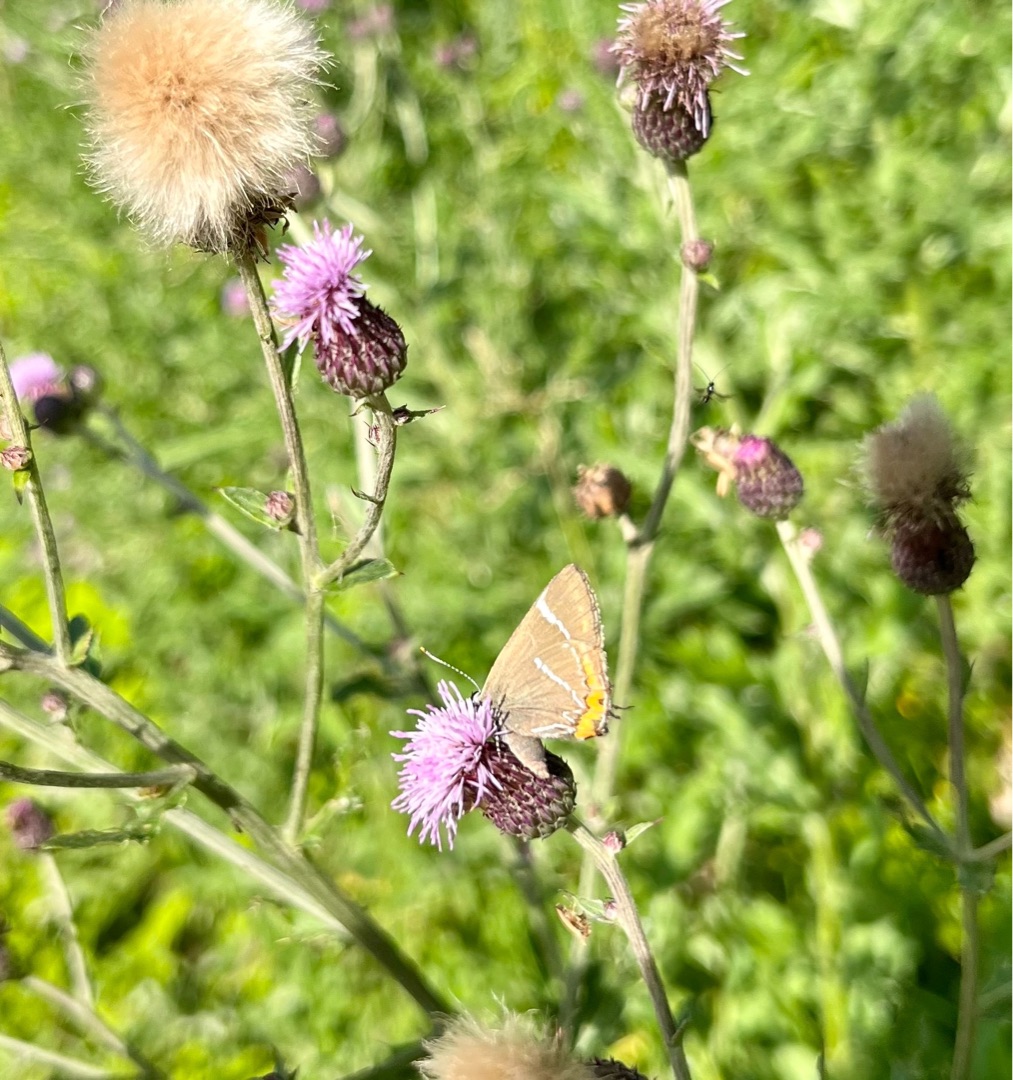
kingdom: Animalia
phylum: Arthropoda
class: Insecta
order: Lepidoptera
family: Lycaenidae
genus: Satyrium
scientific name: Satyrium w-album
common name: Det hvide W
